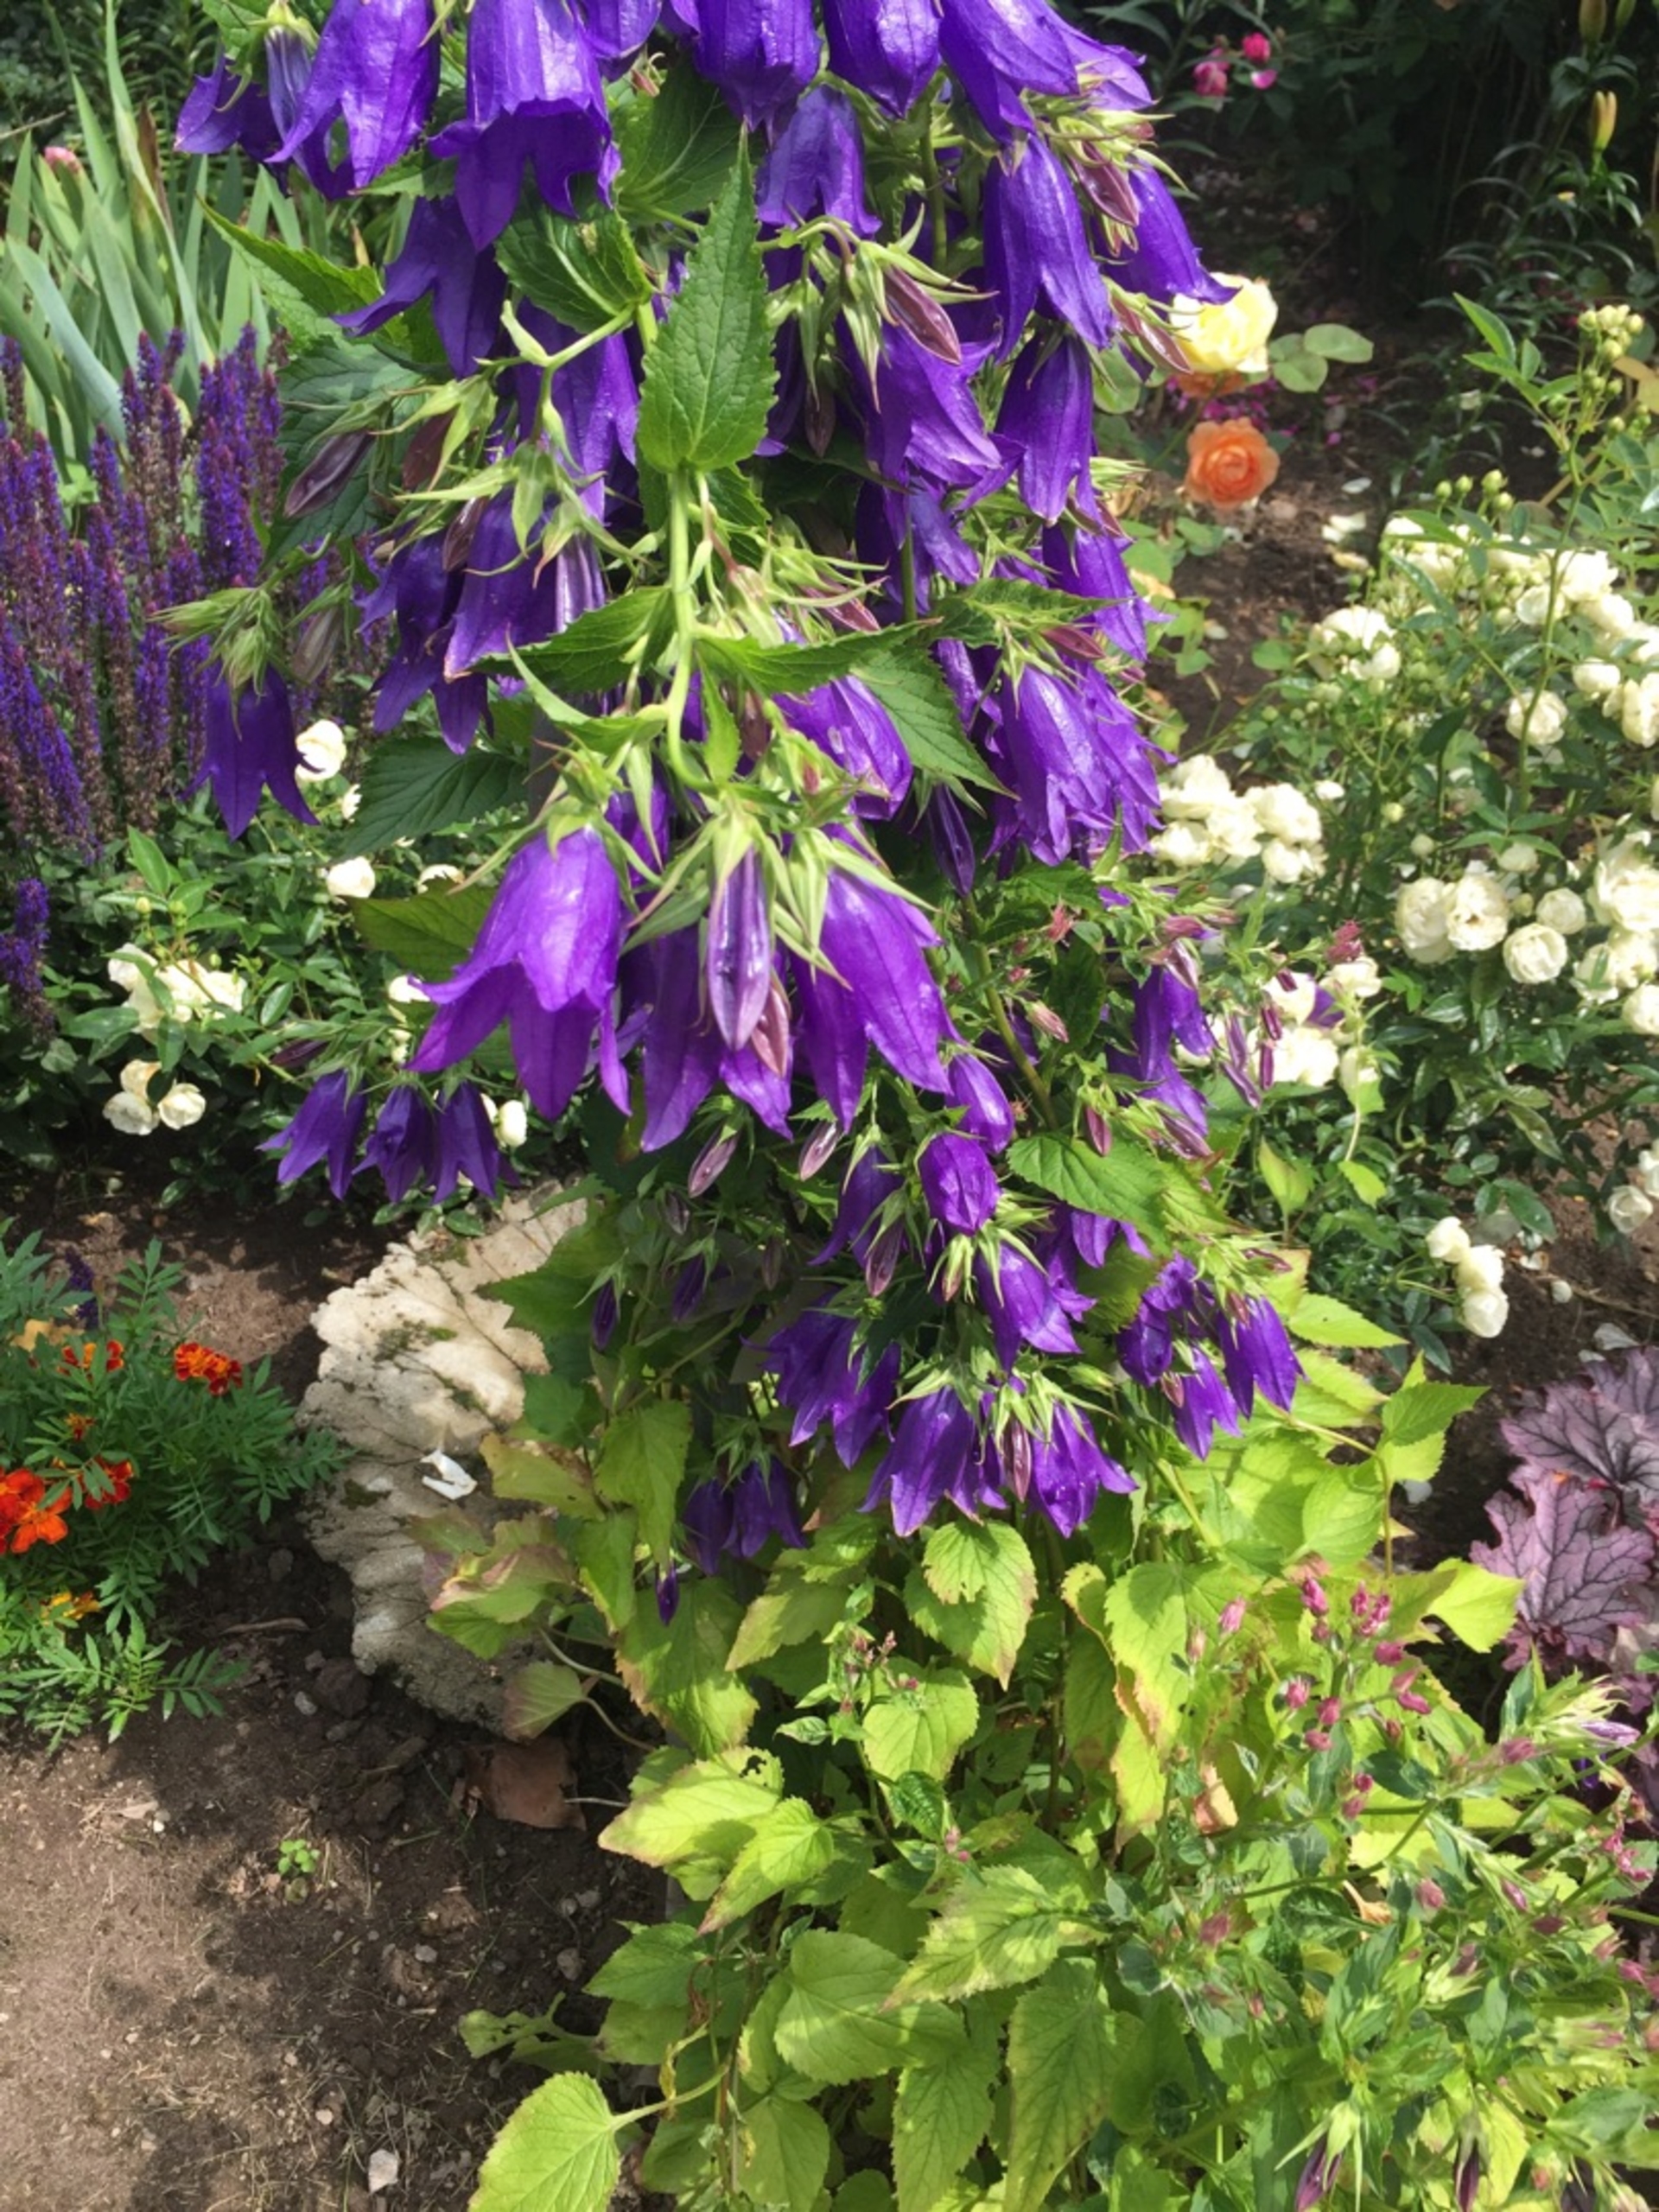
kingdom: Plantae
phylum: Tracheophyta
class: Magnoliopsida
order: Asterales
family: Campanulaceae
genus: Campanula
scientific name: Campanula trachelium
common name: Nælde-klokke
